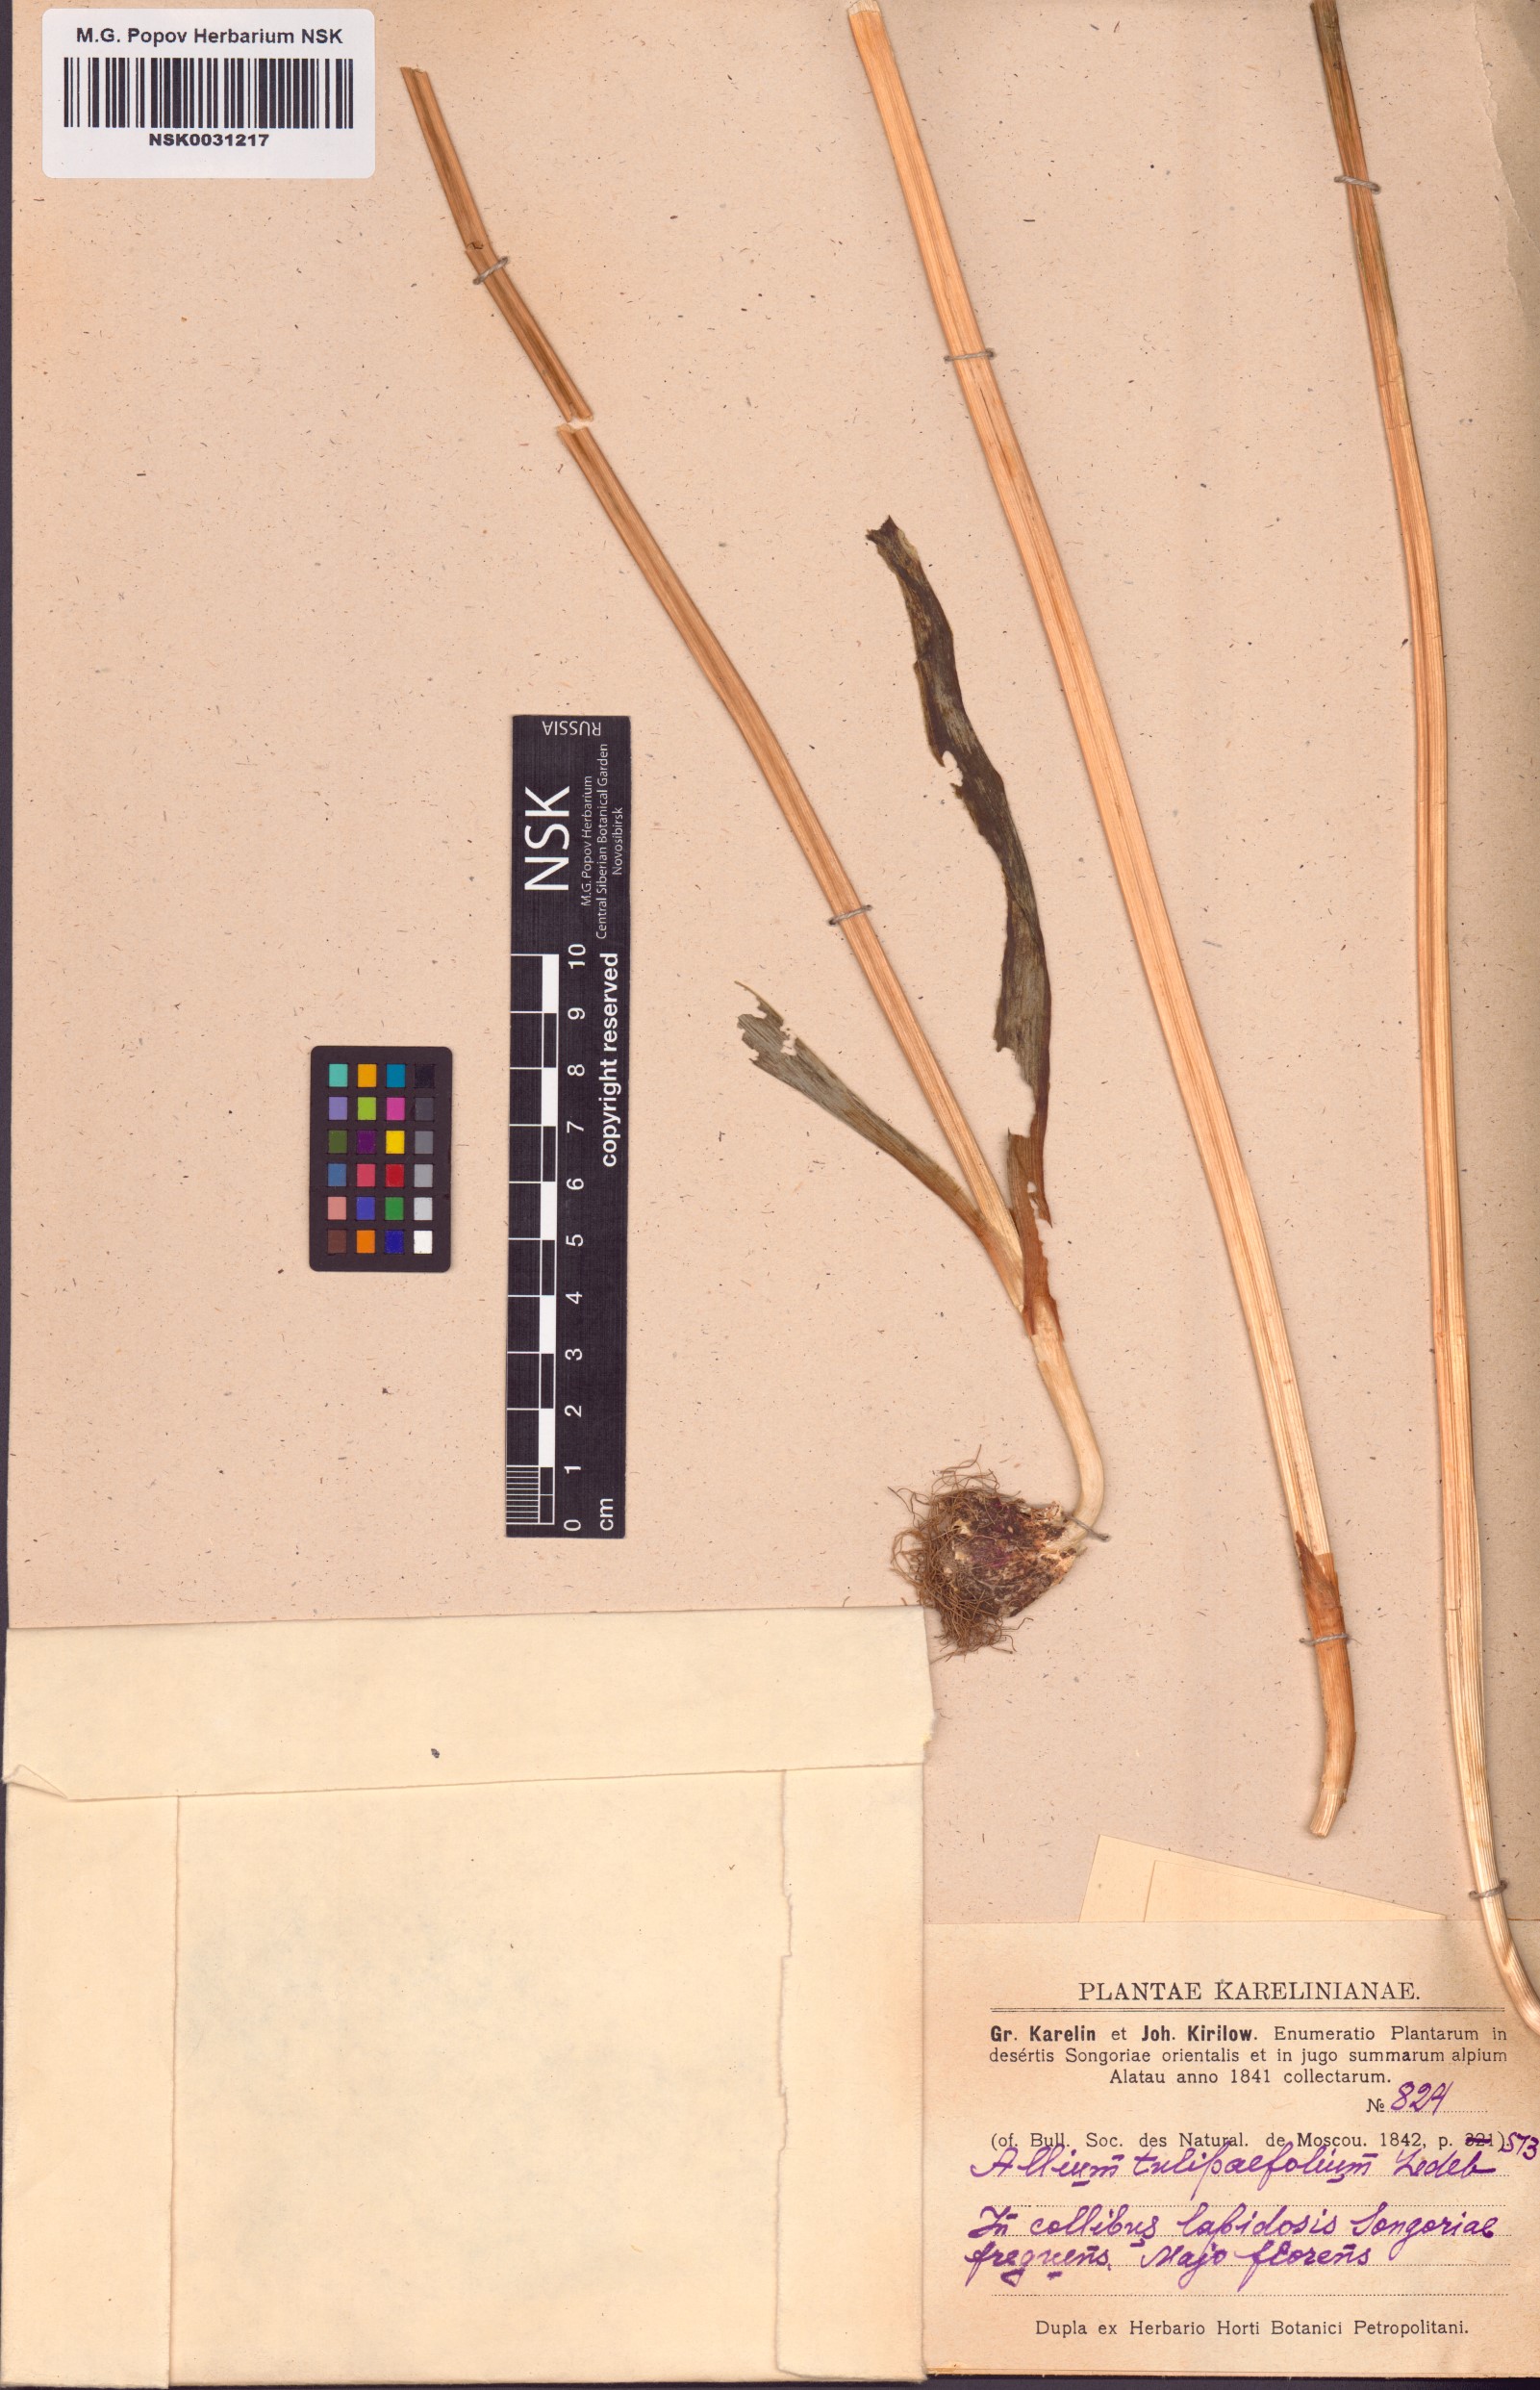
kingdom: Plantae
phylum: Tracheophyta
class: Liliopsida
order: Asparagales
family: Amaryllidaceae
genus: Allium
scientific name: Allium tulipifolium
